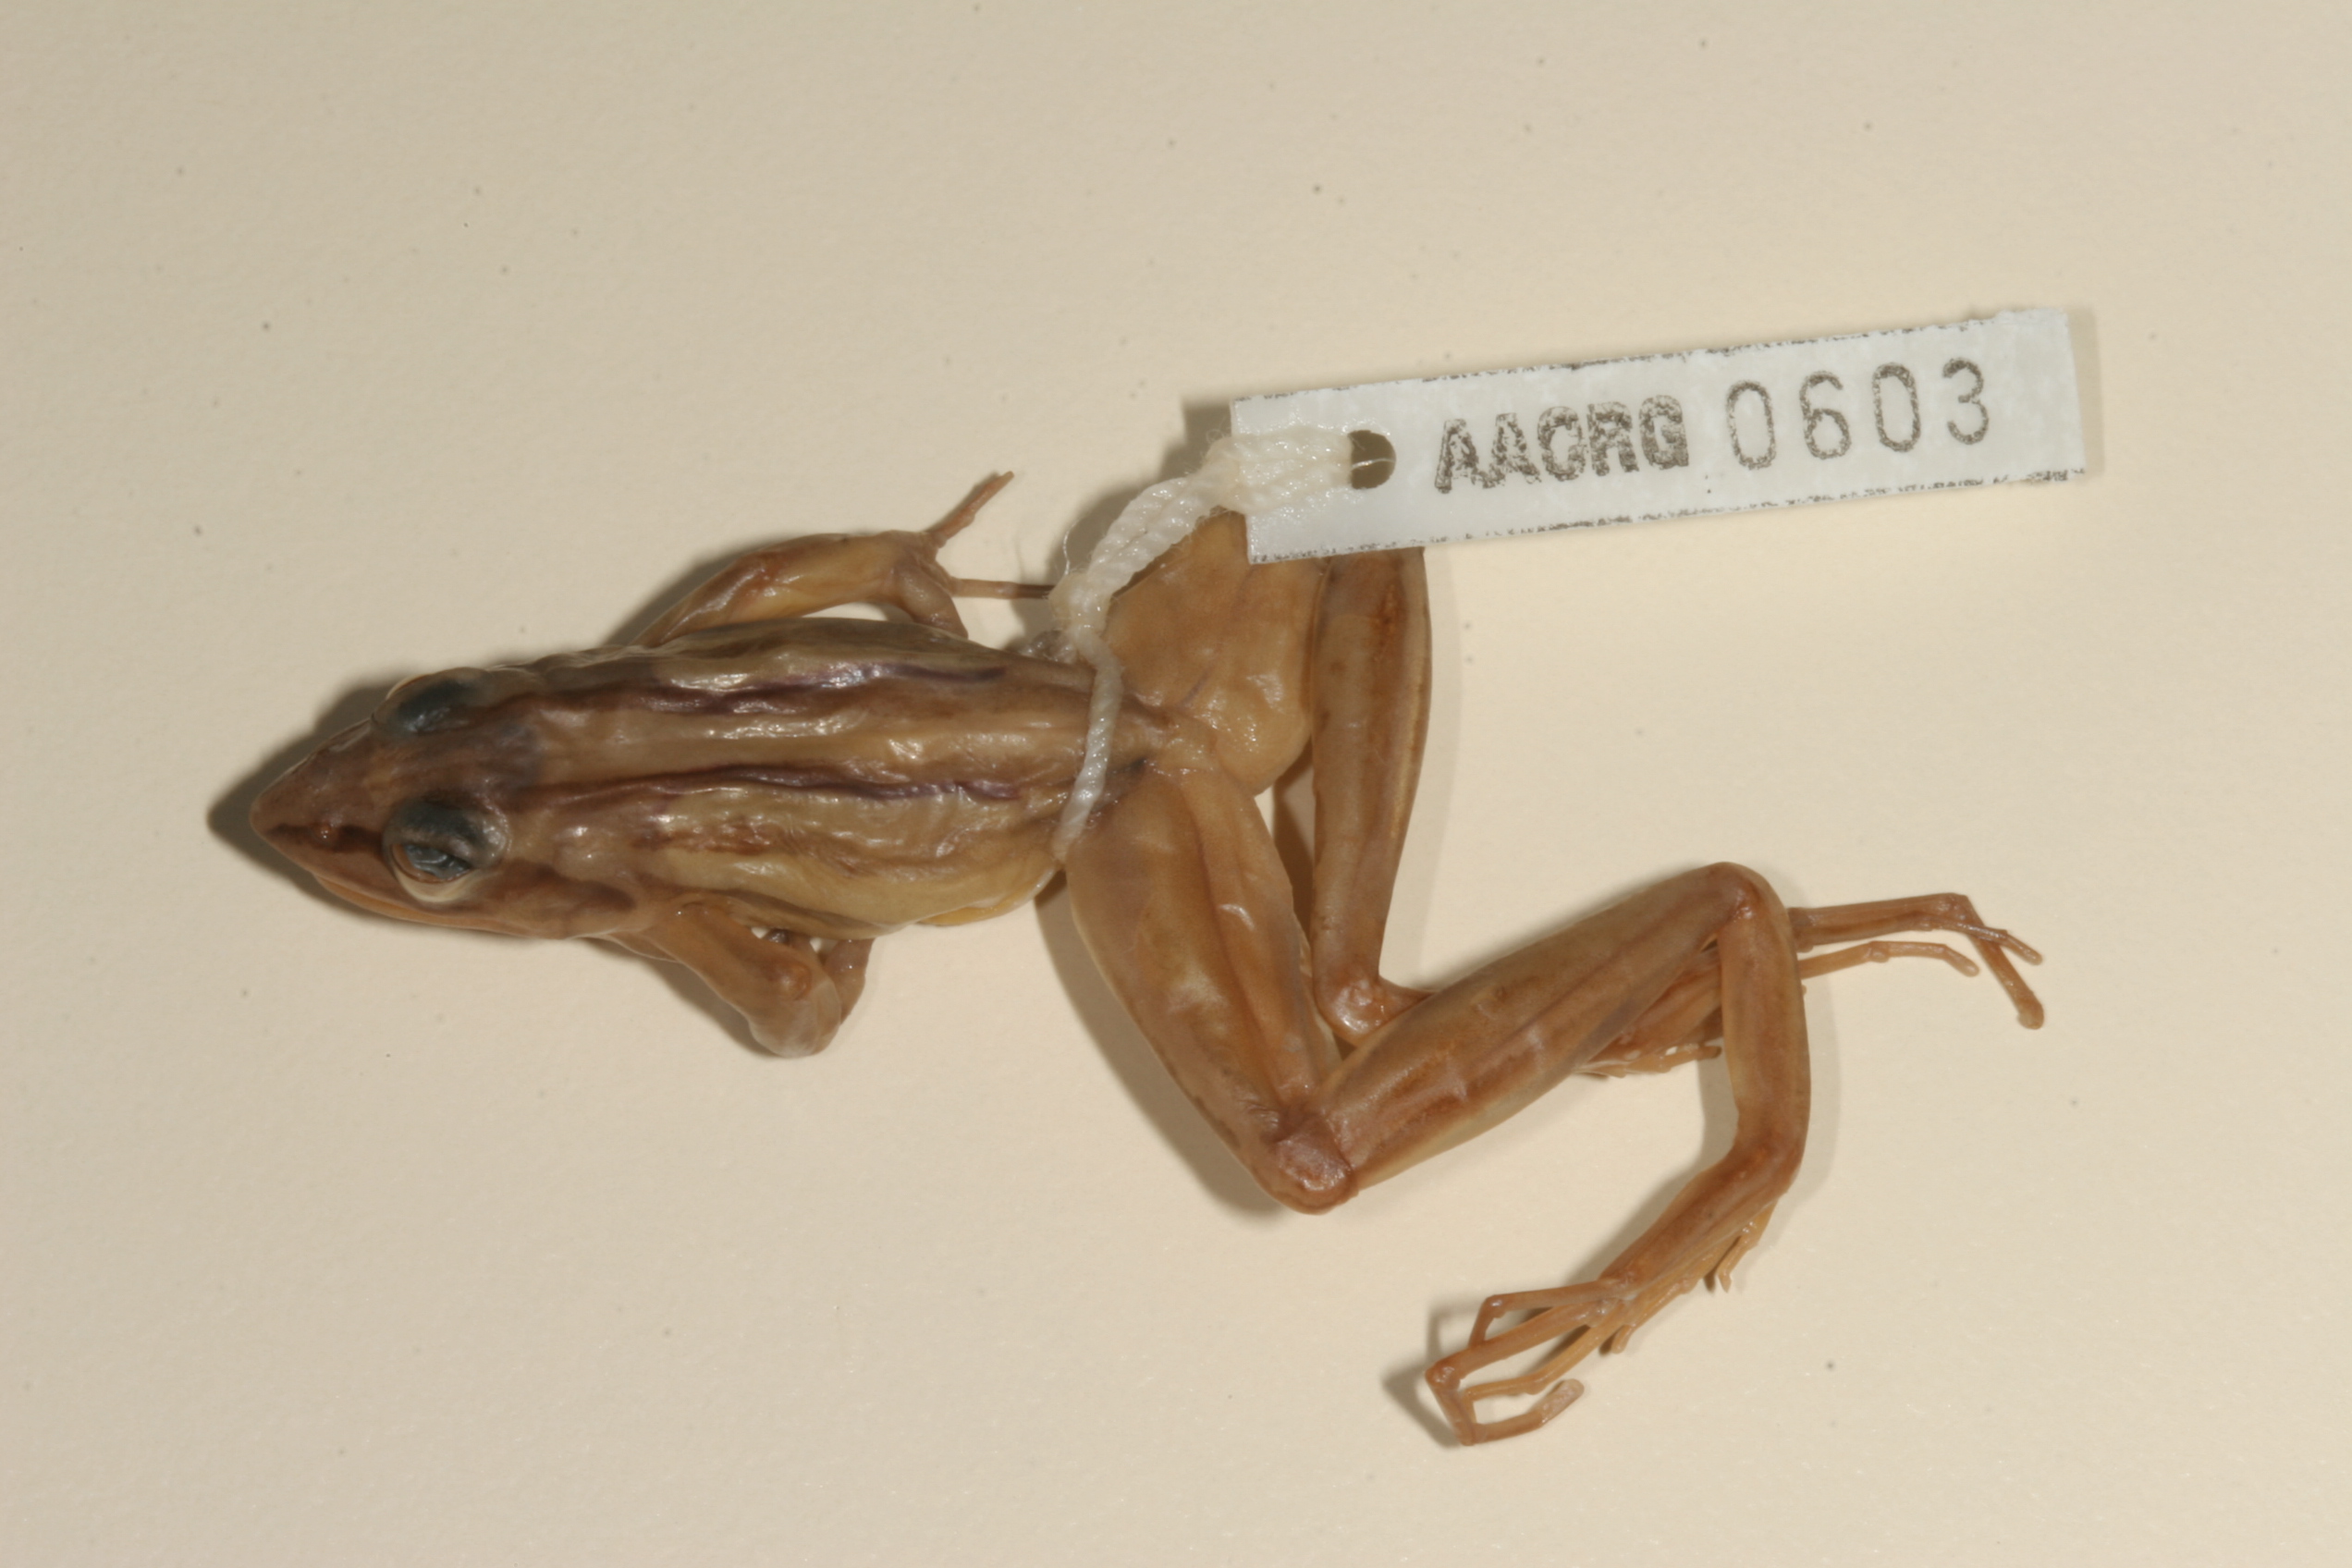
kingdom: Animalia
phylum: Chordata
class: Amphibia
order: Anura
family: Pyxicephalidae
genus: Strongylopus
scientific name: Strongylopus fasciatus
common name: Striped stream frog
